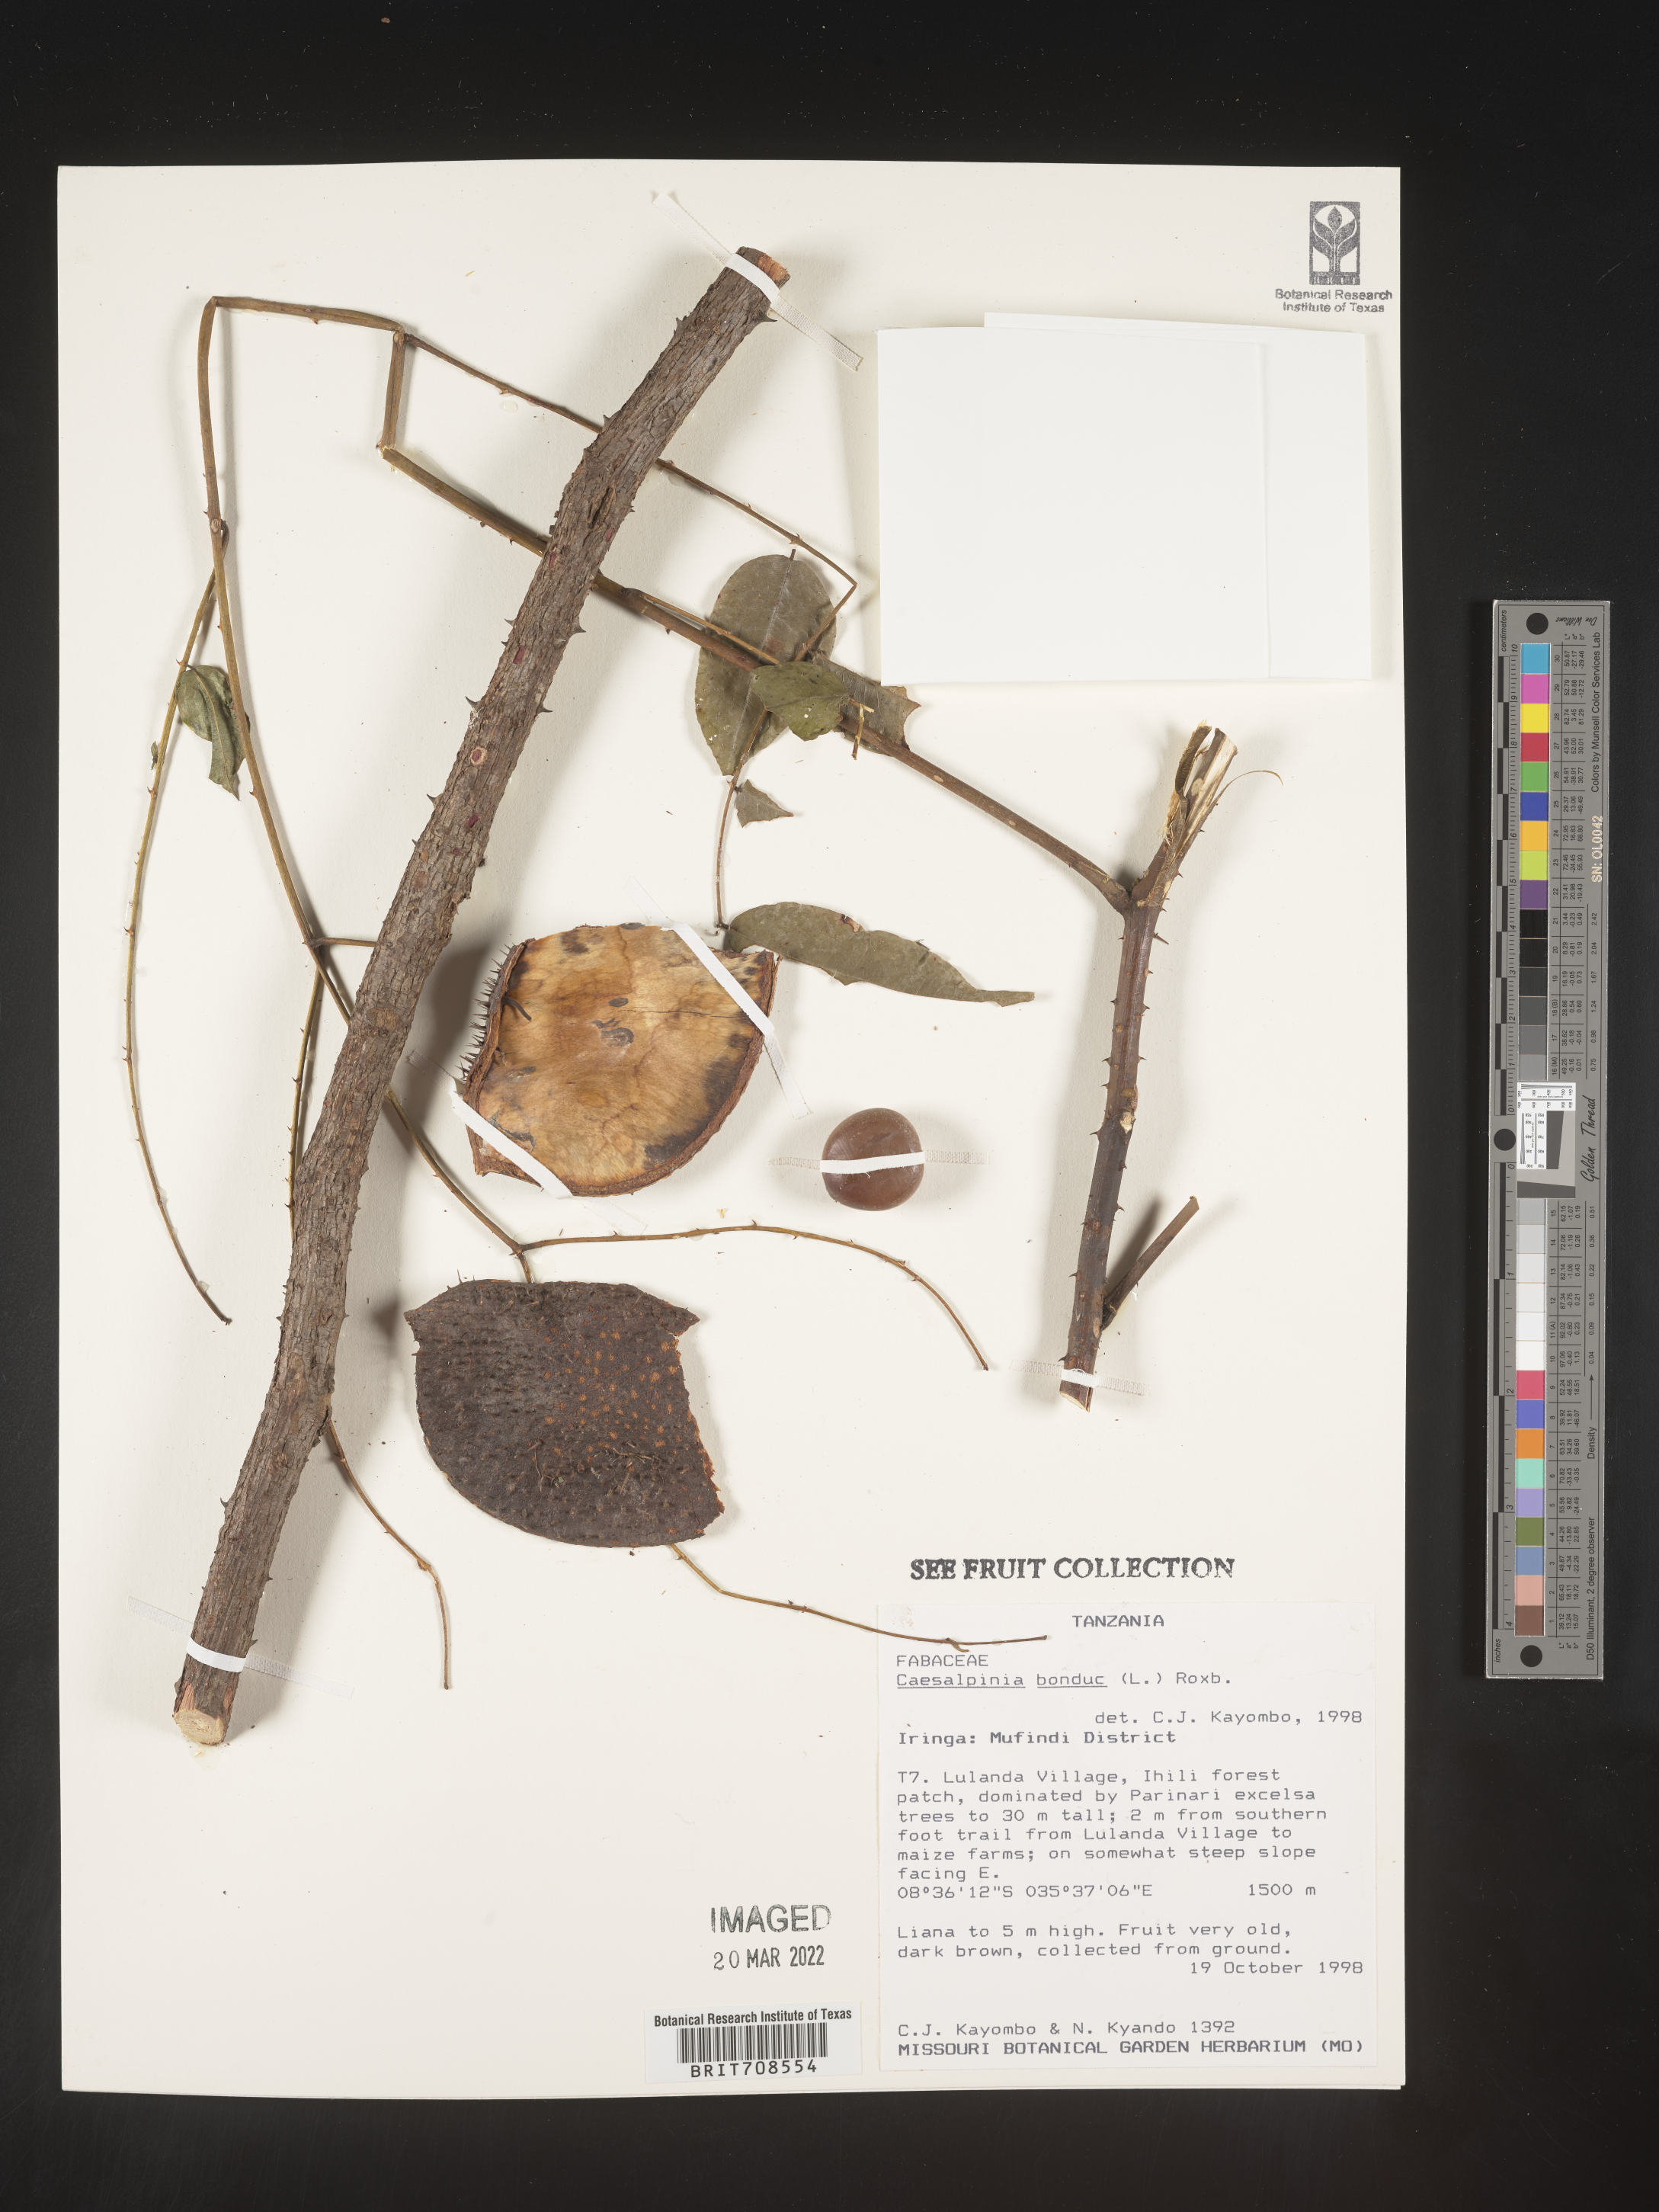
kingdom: Plantae
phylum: Tracheophyta
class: Magnoliopsida
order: Fabales
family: Fabaceae
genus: Caesalpinia
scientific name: Caesalpinia
